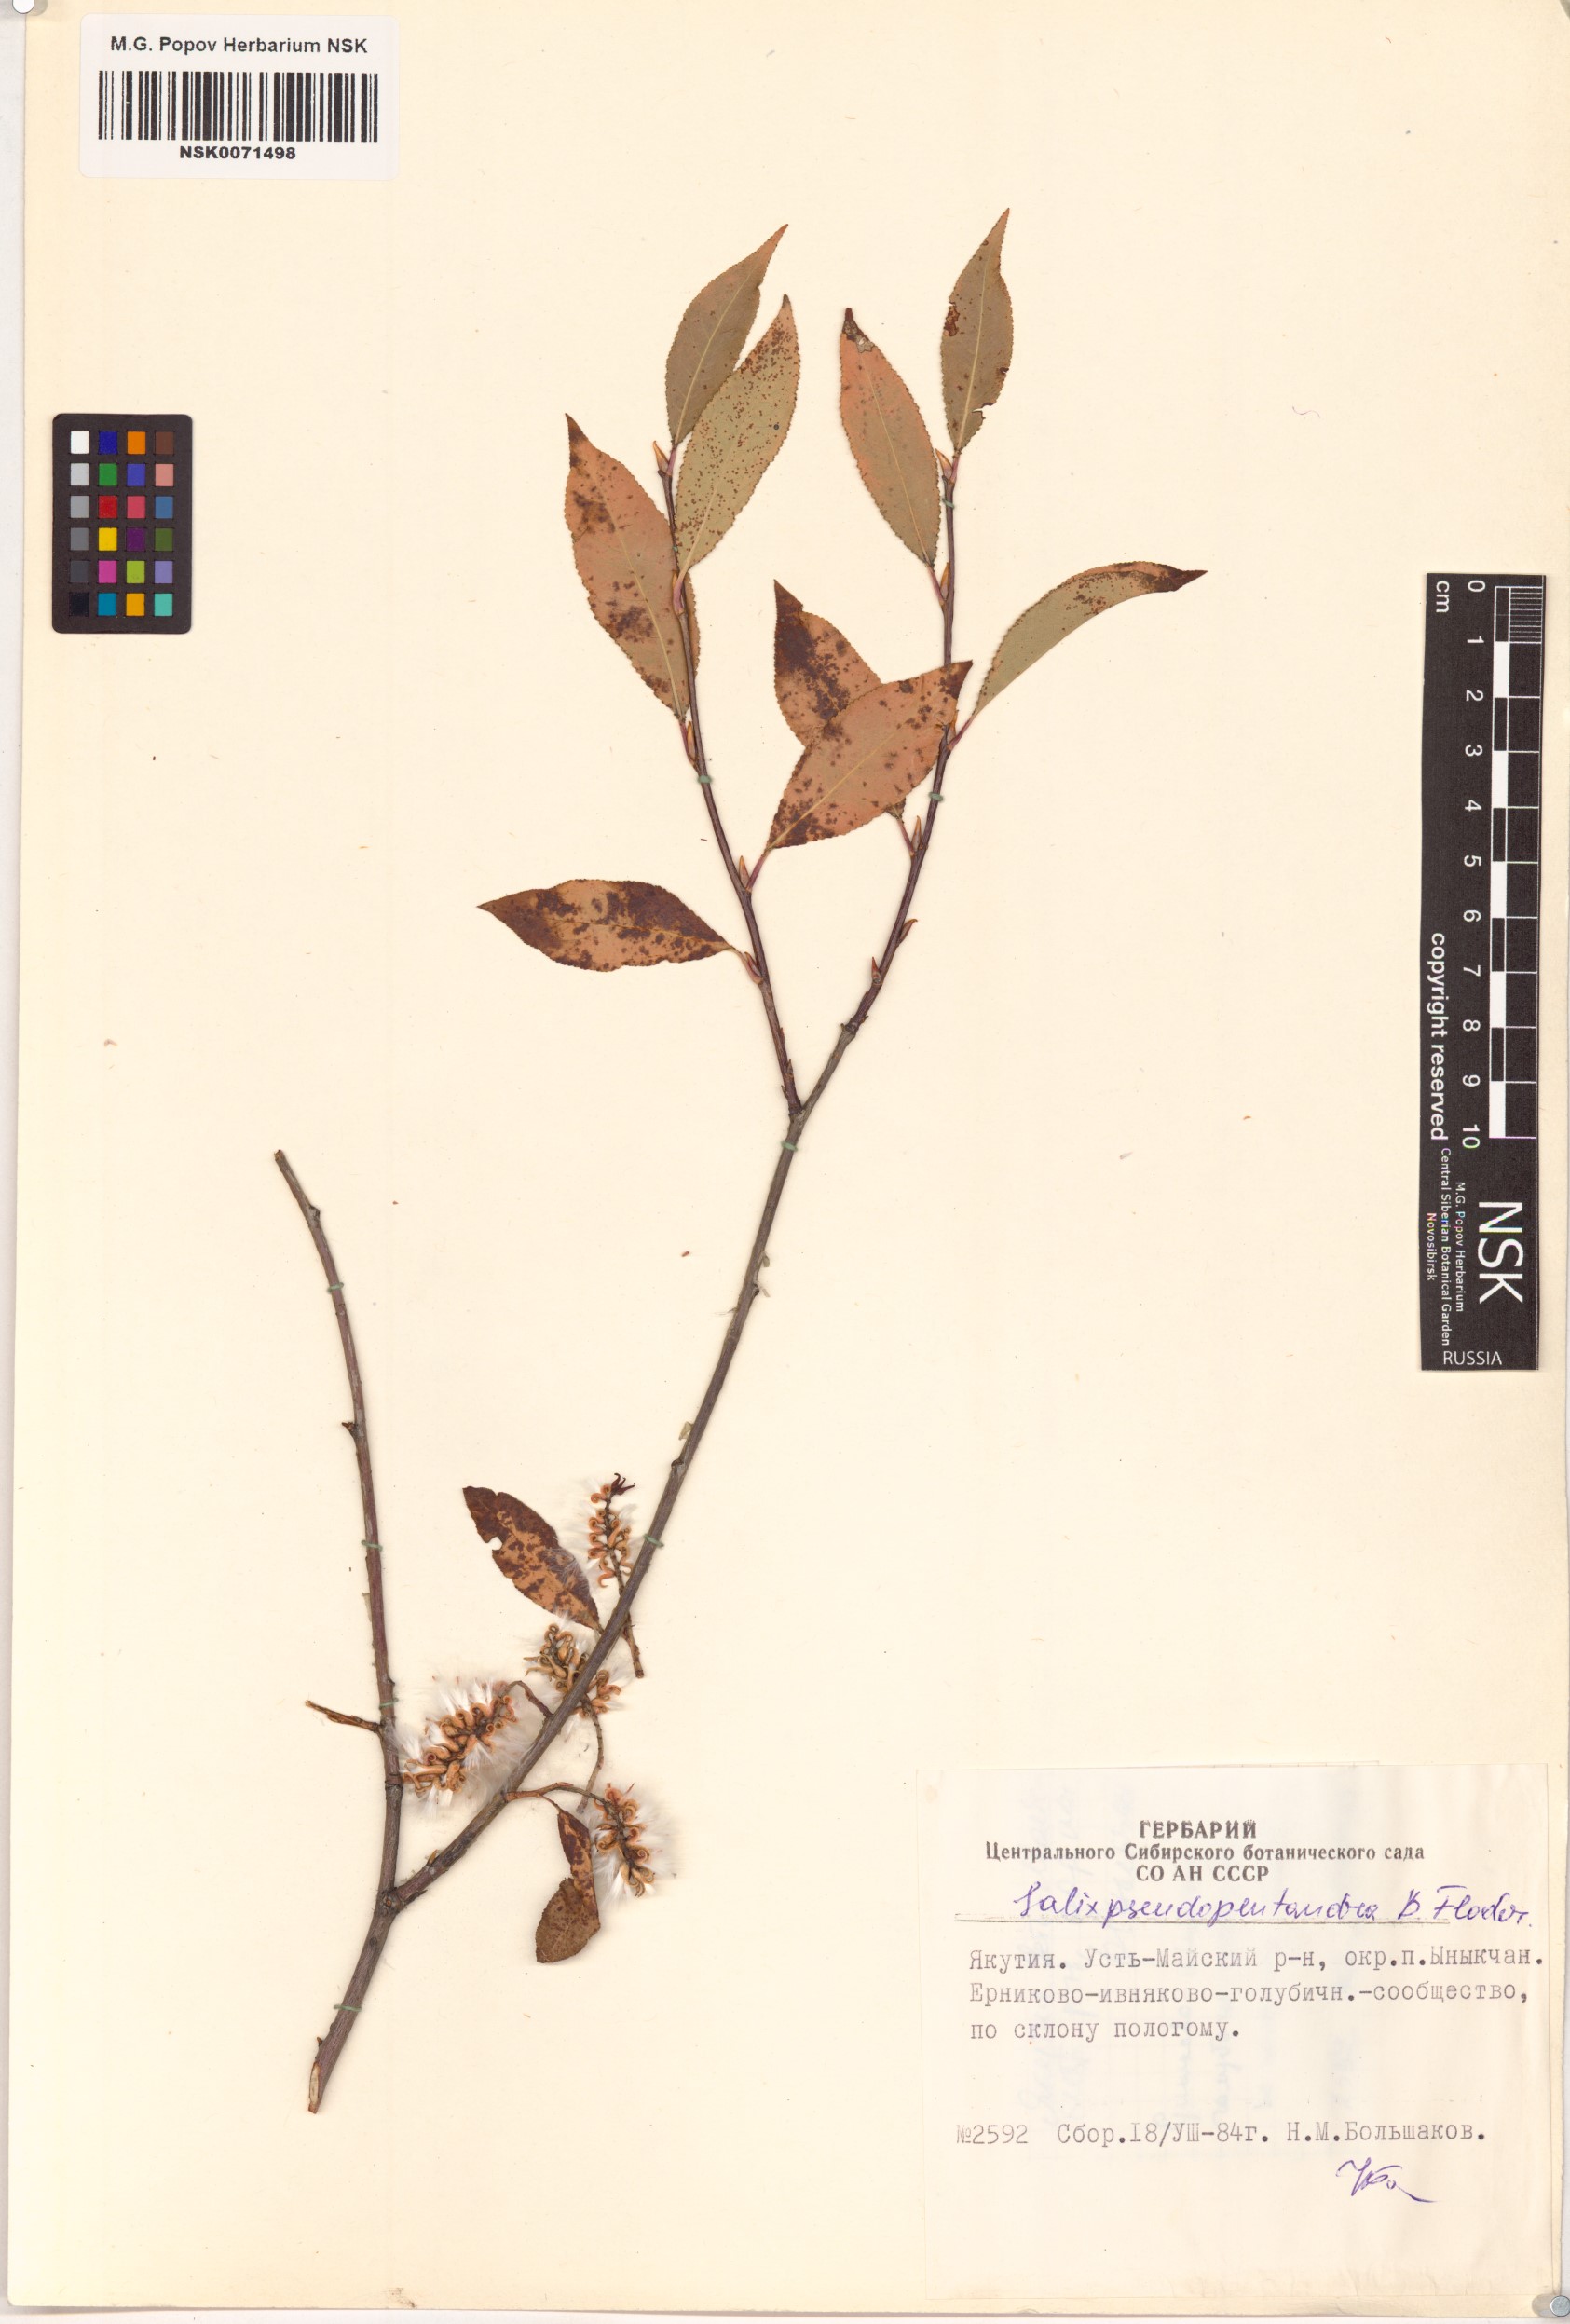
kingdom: Plantae
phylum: Tracheophyta
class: Magnoliopsida
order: Malpighiales
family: Salicaceae
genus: Salix
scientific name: Salix pseudopentandra
